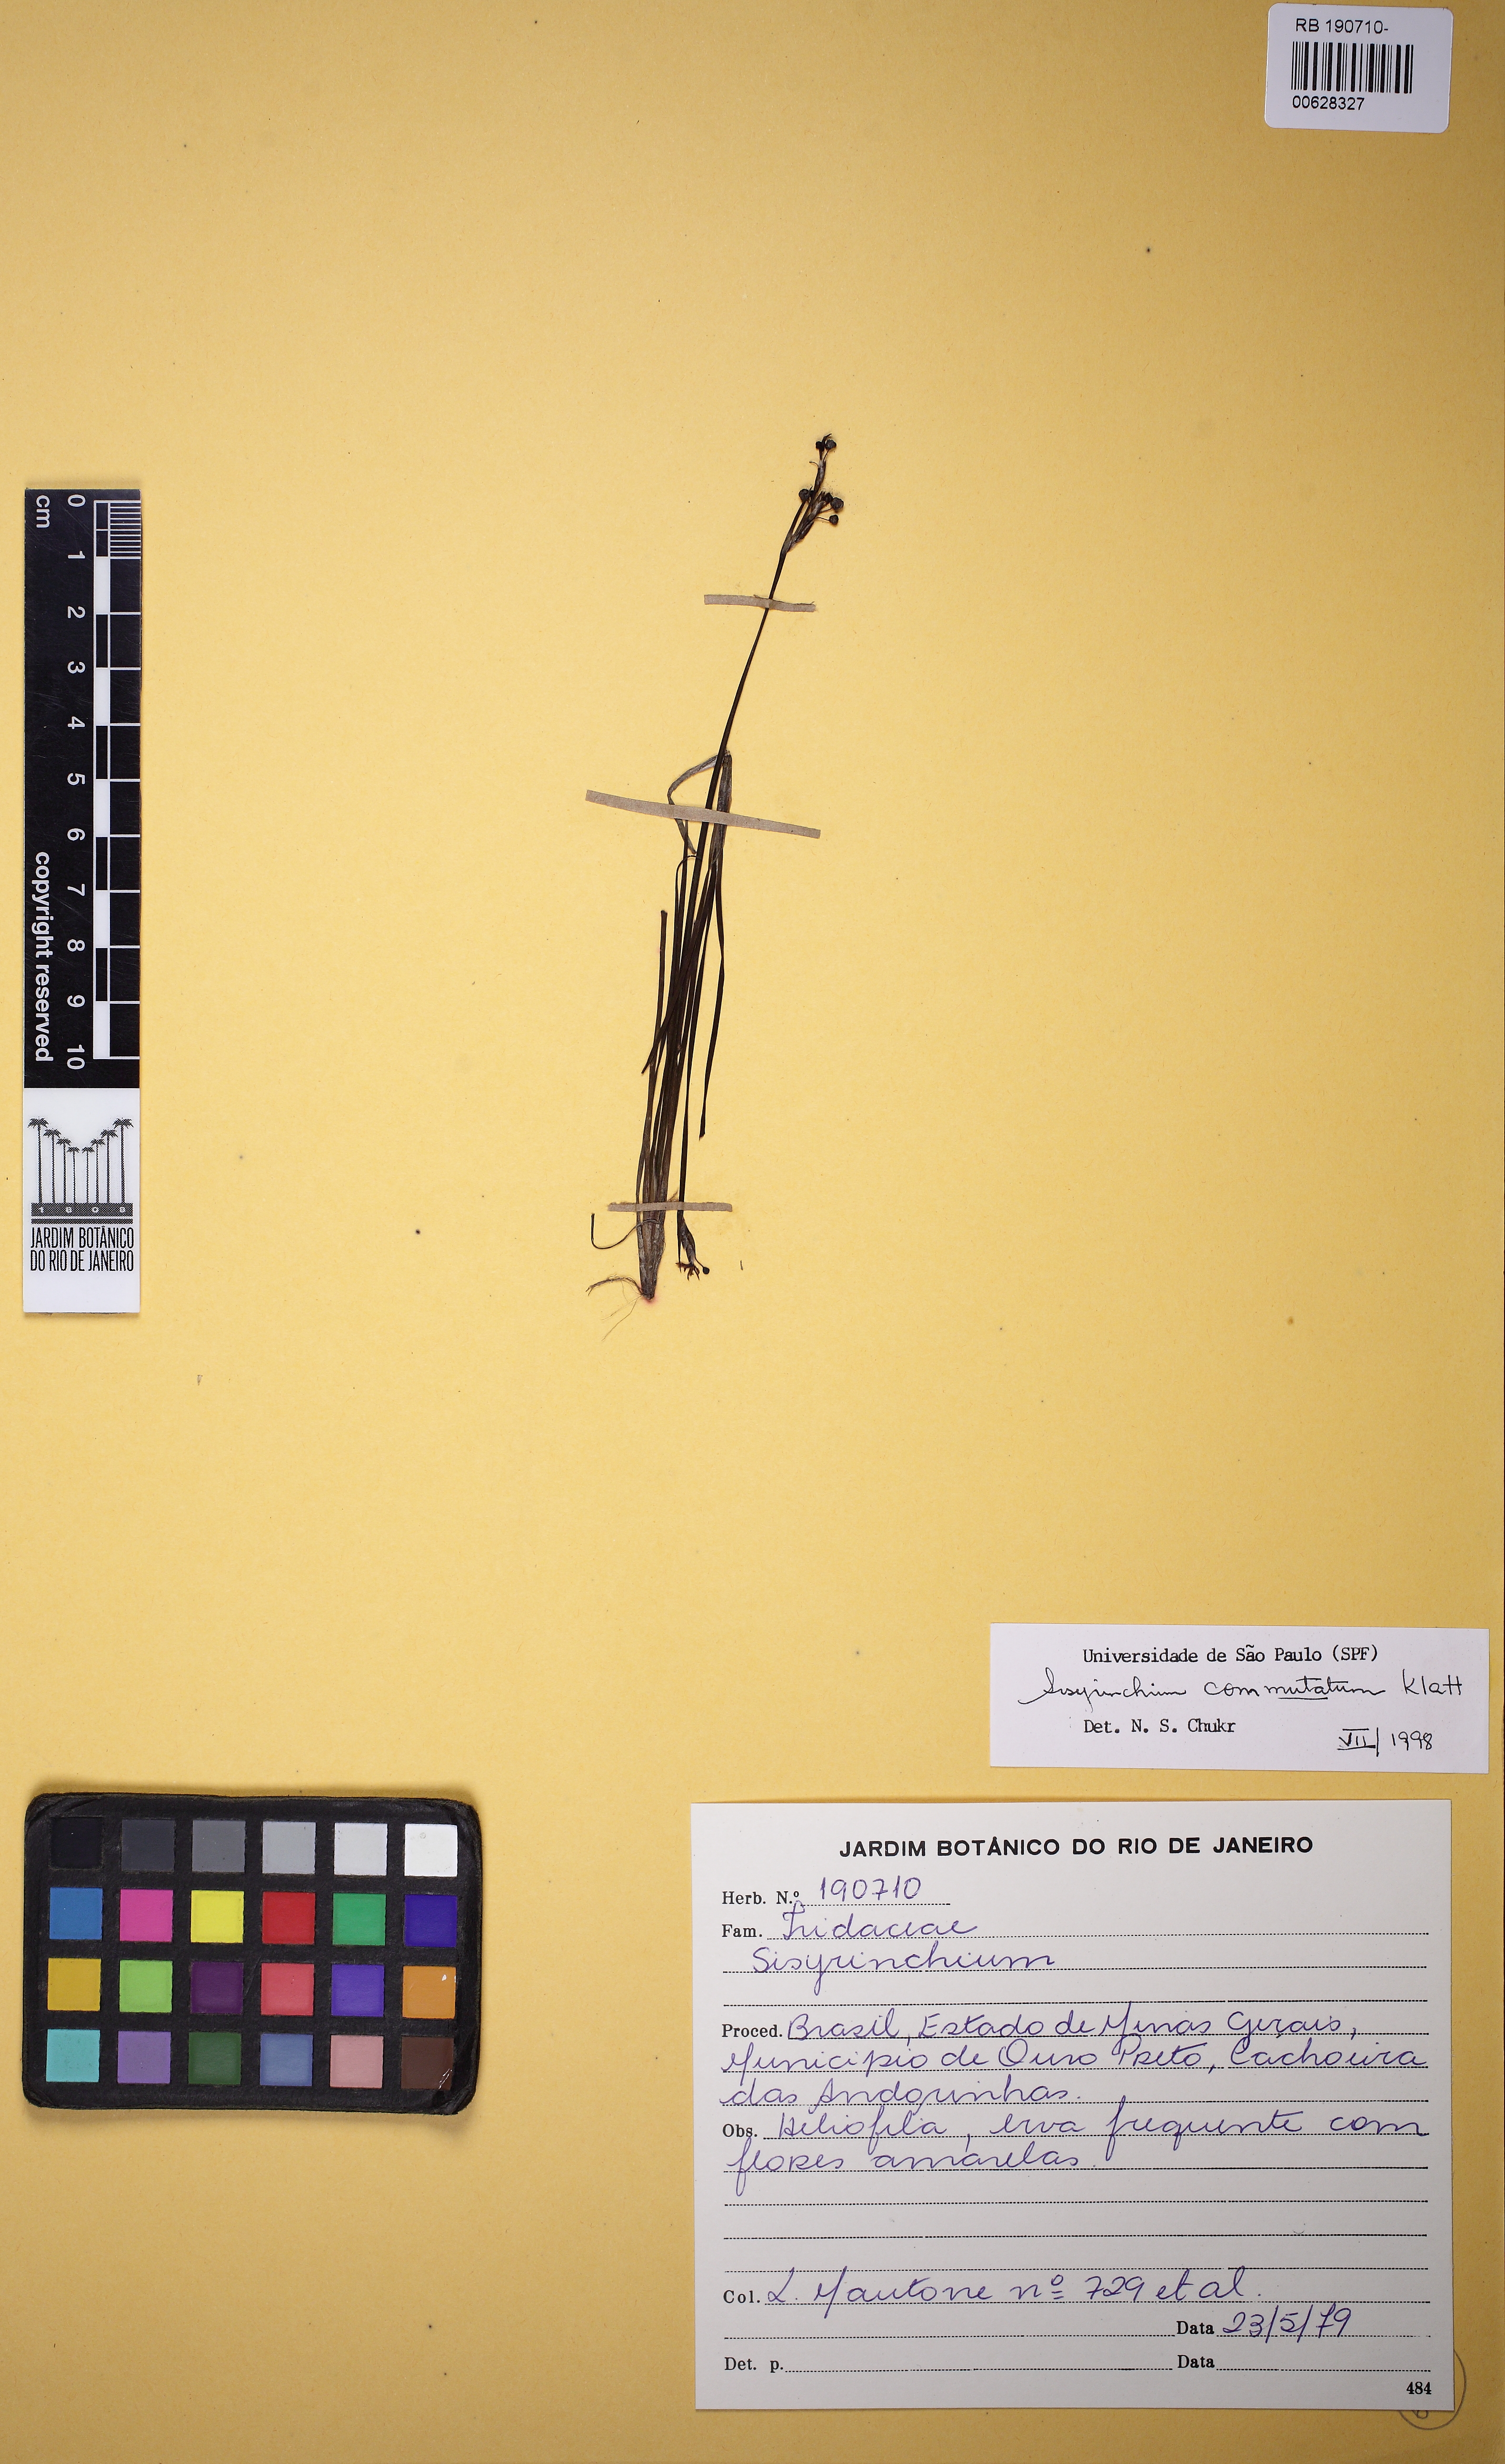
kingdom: Plantae
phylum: Tracheophyta
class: Liliopsida
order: Asparagales
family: Iridaceae
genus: Sisyrinchium
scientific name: Sisyrinchium commutatum
